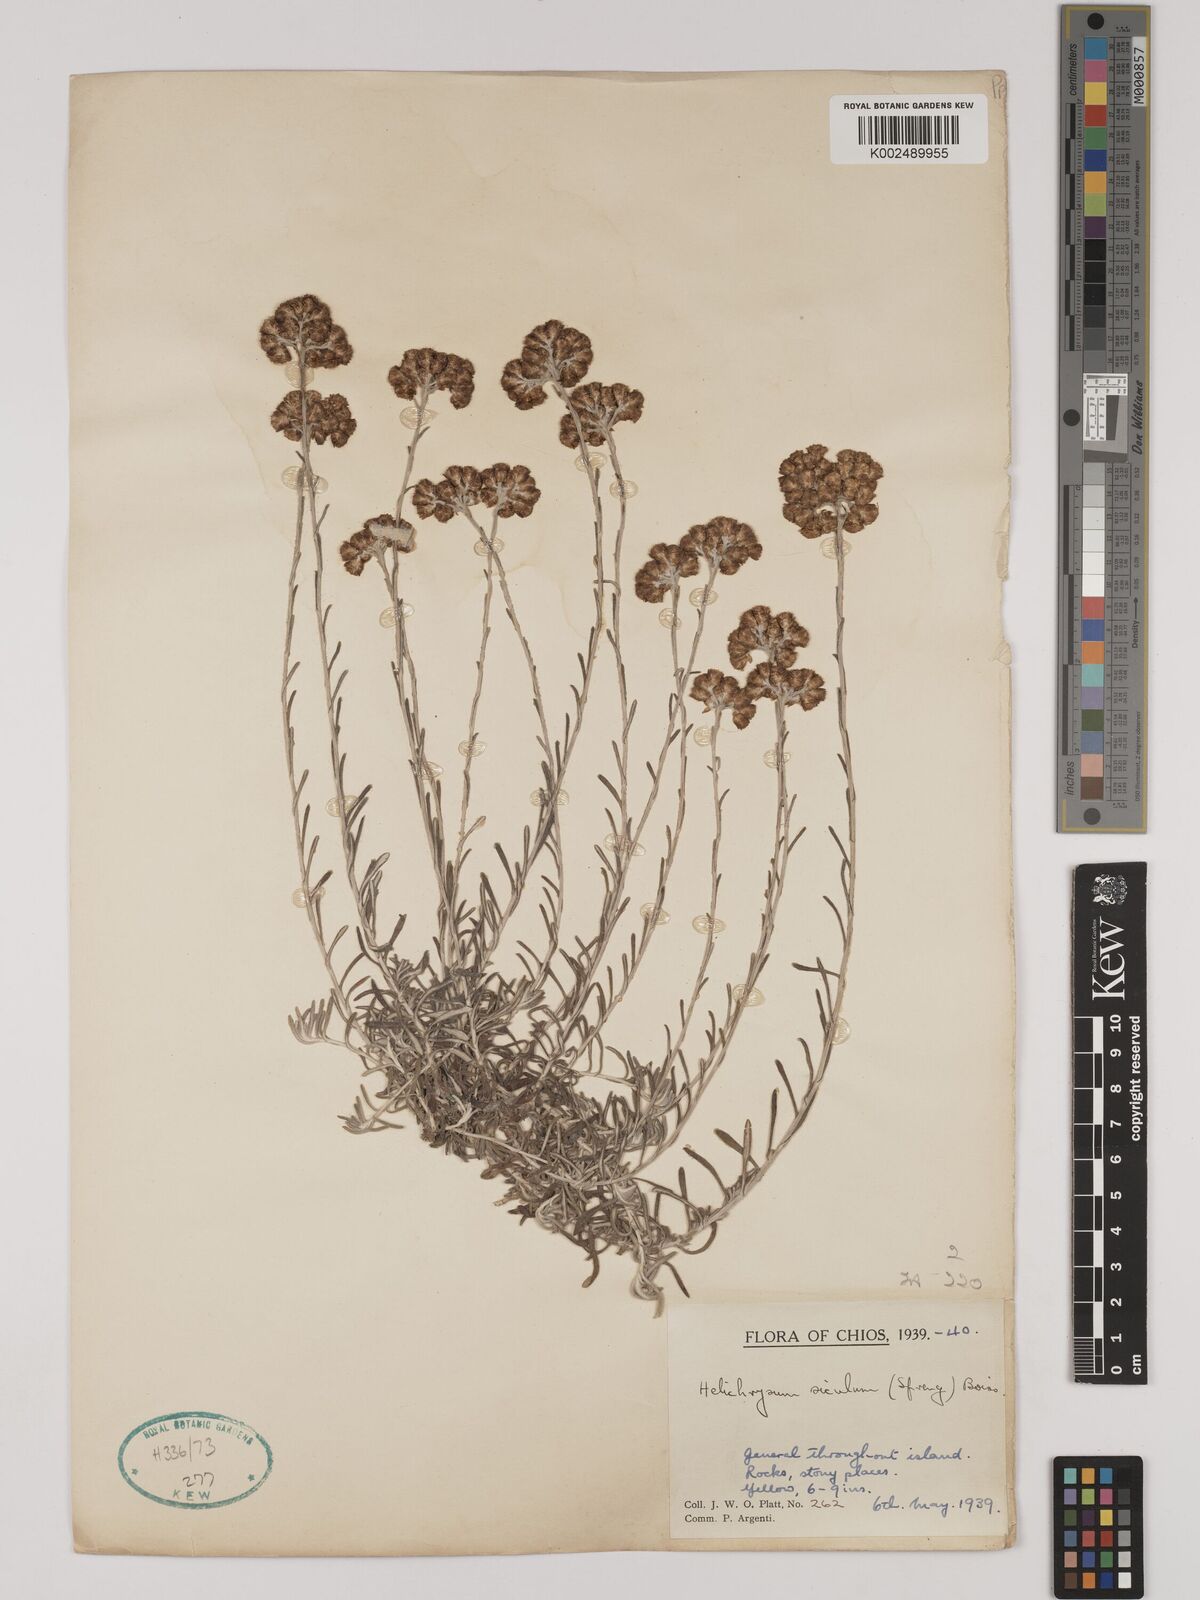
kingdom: Plantae
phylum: Tracheophyta
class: Magnoliopsida
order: Asterales
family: Asteraceae
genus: Helichrysum
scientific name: Helichrysum italicum
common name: Curryplant
